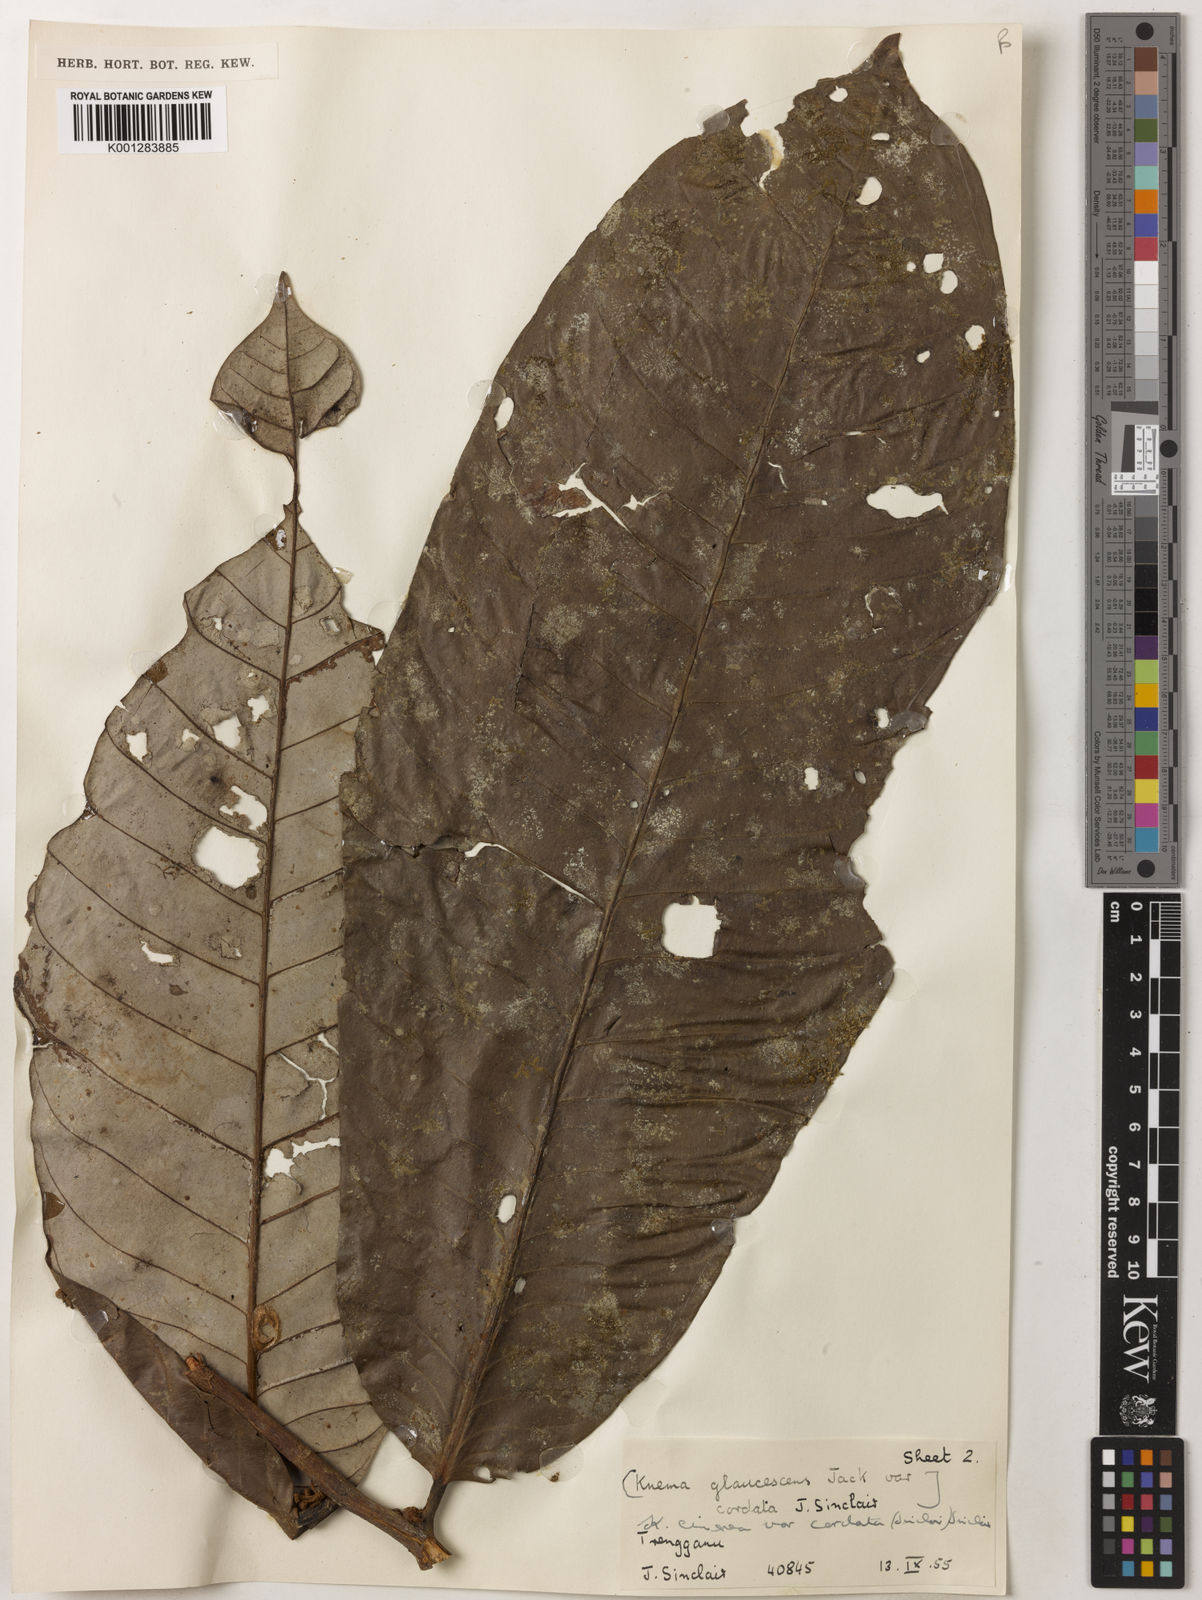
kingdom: Plantae
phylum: Tracheophyta
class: Magnoliopsida
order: Magnoliales
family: Myristicaceae
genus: Knema
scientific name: Knema
